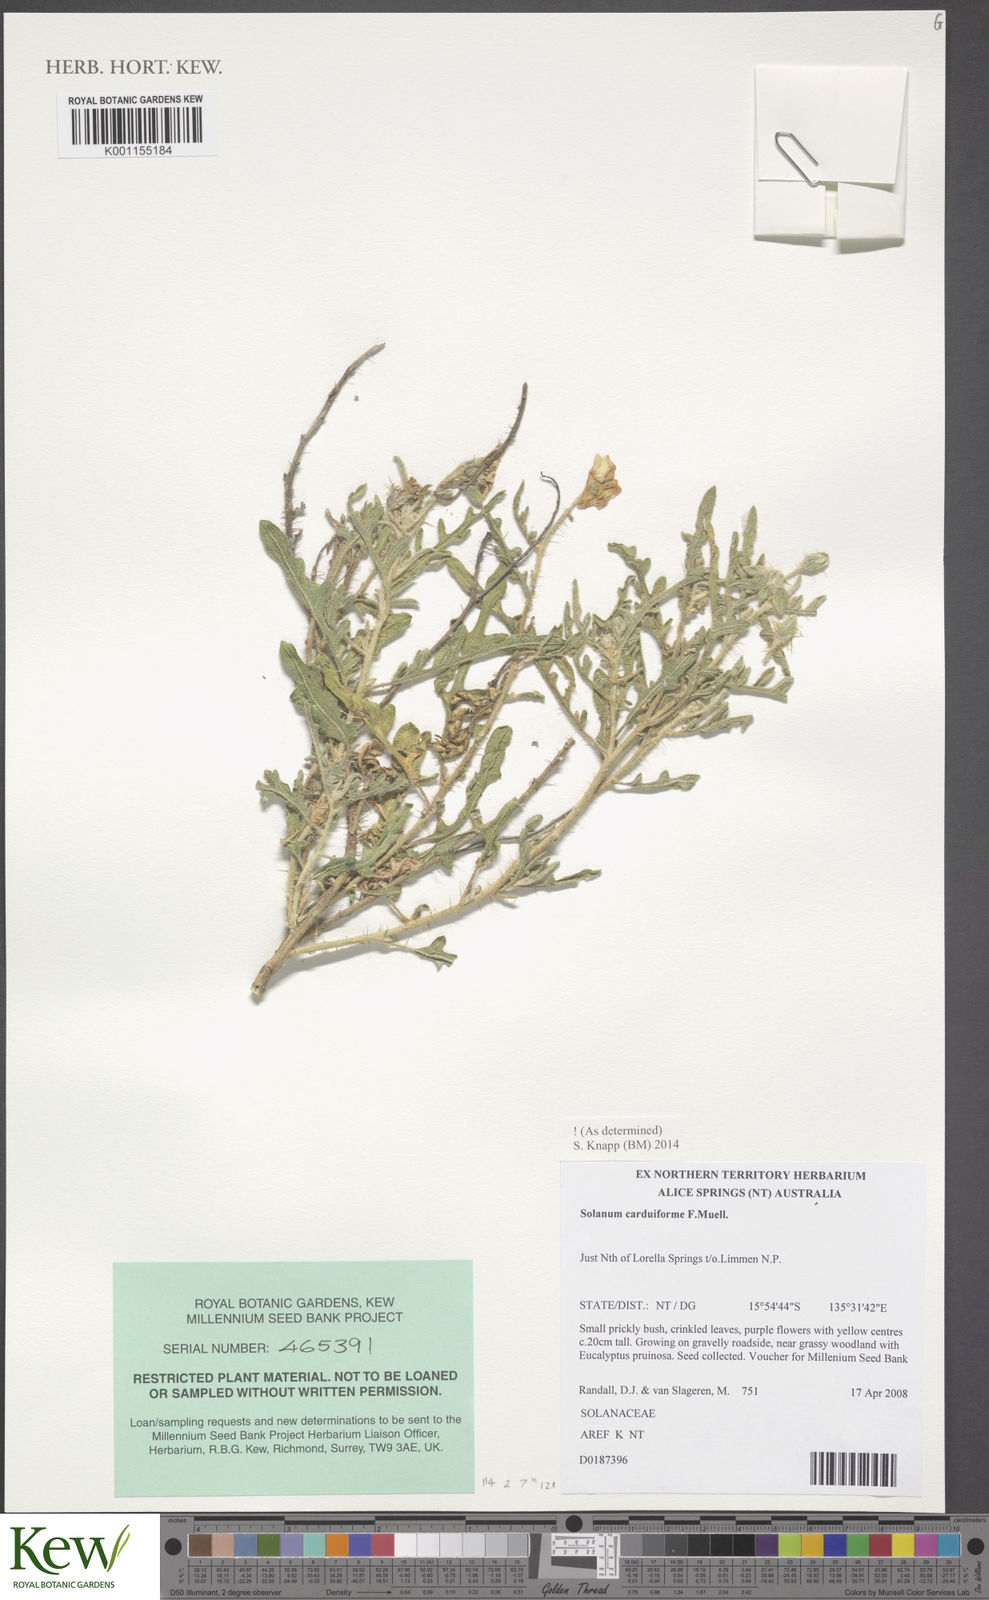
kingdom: Plantae
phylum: Tracheophyta
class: Magnoliopsida
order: Solanales
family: Solanaceae
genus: Solanum
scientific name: Solanum carduiforme
